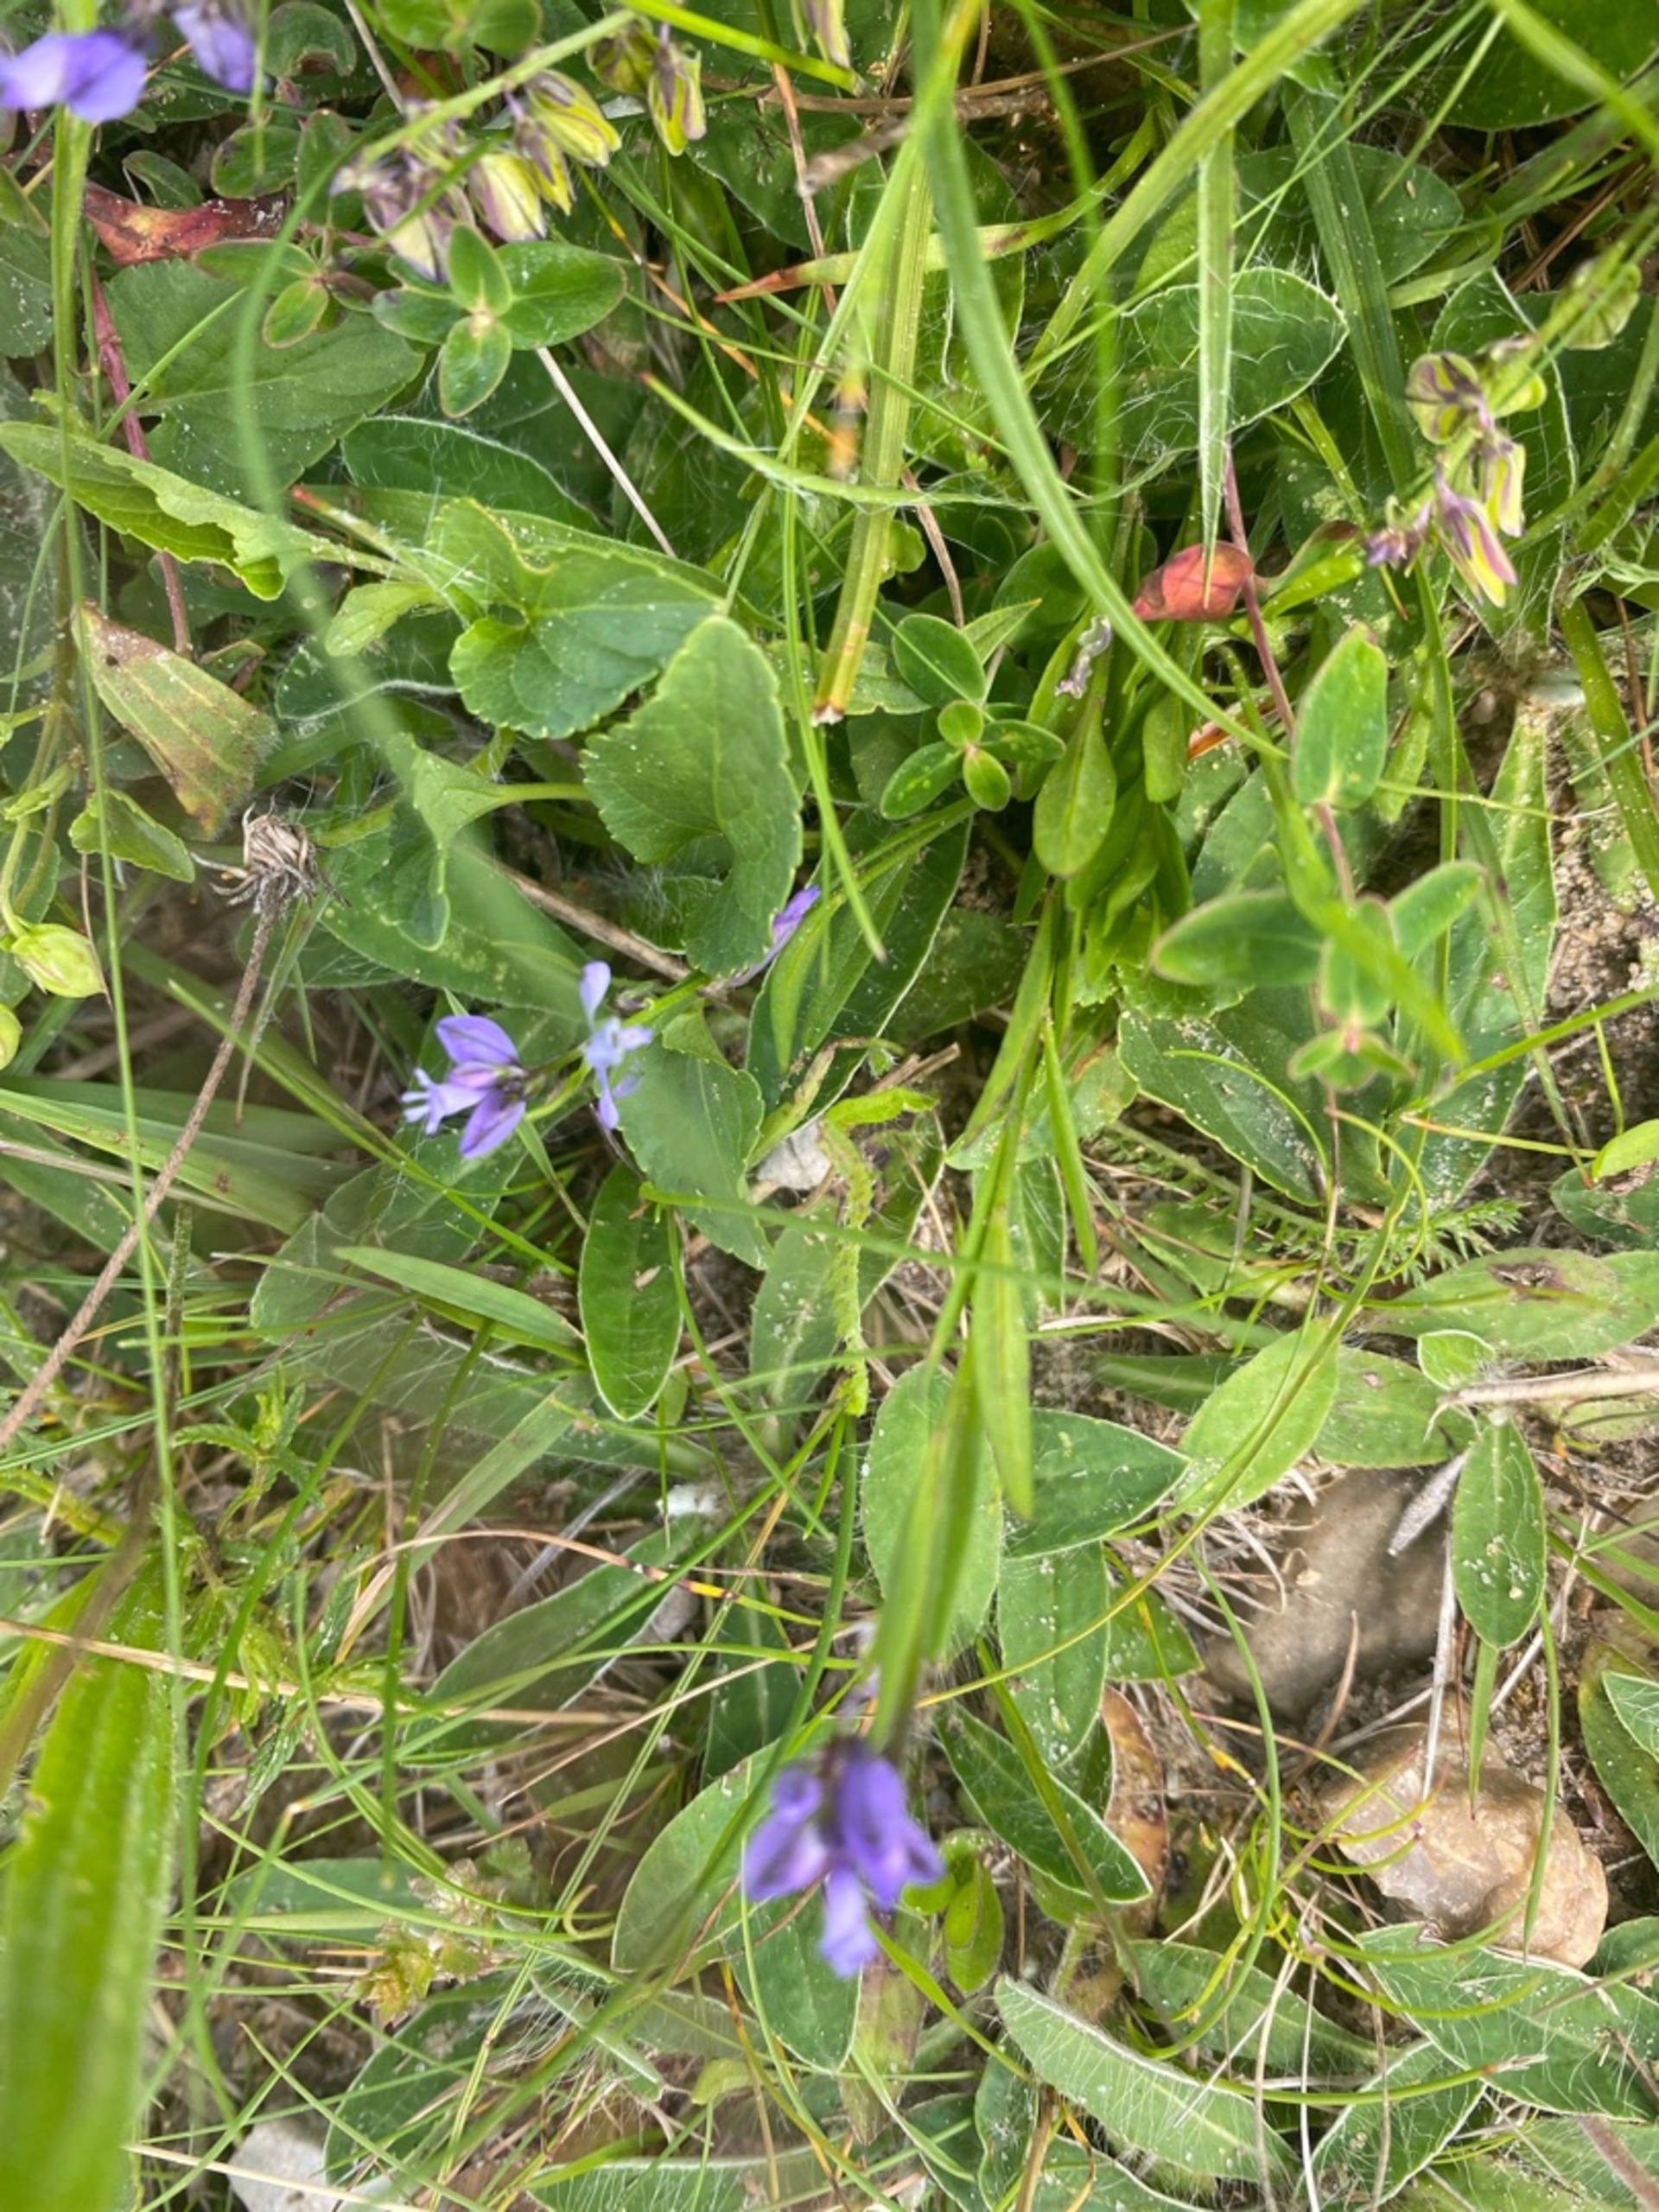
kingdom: Plantae
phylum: Tracheophyta
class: Magnoliopsida
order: Fabales
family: Polygalaceae
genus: Polygala
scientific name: Polygala
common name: Mælkeurtslægten
